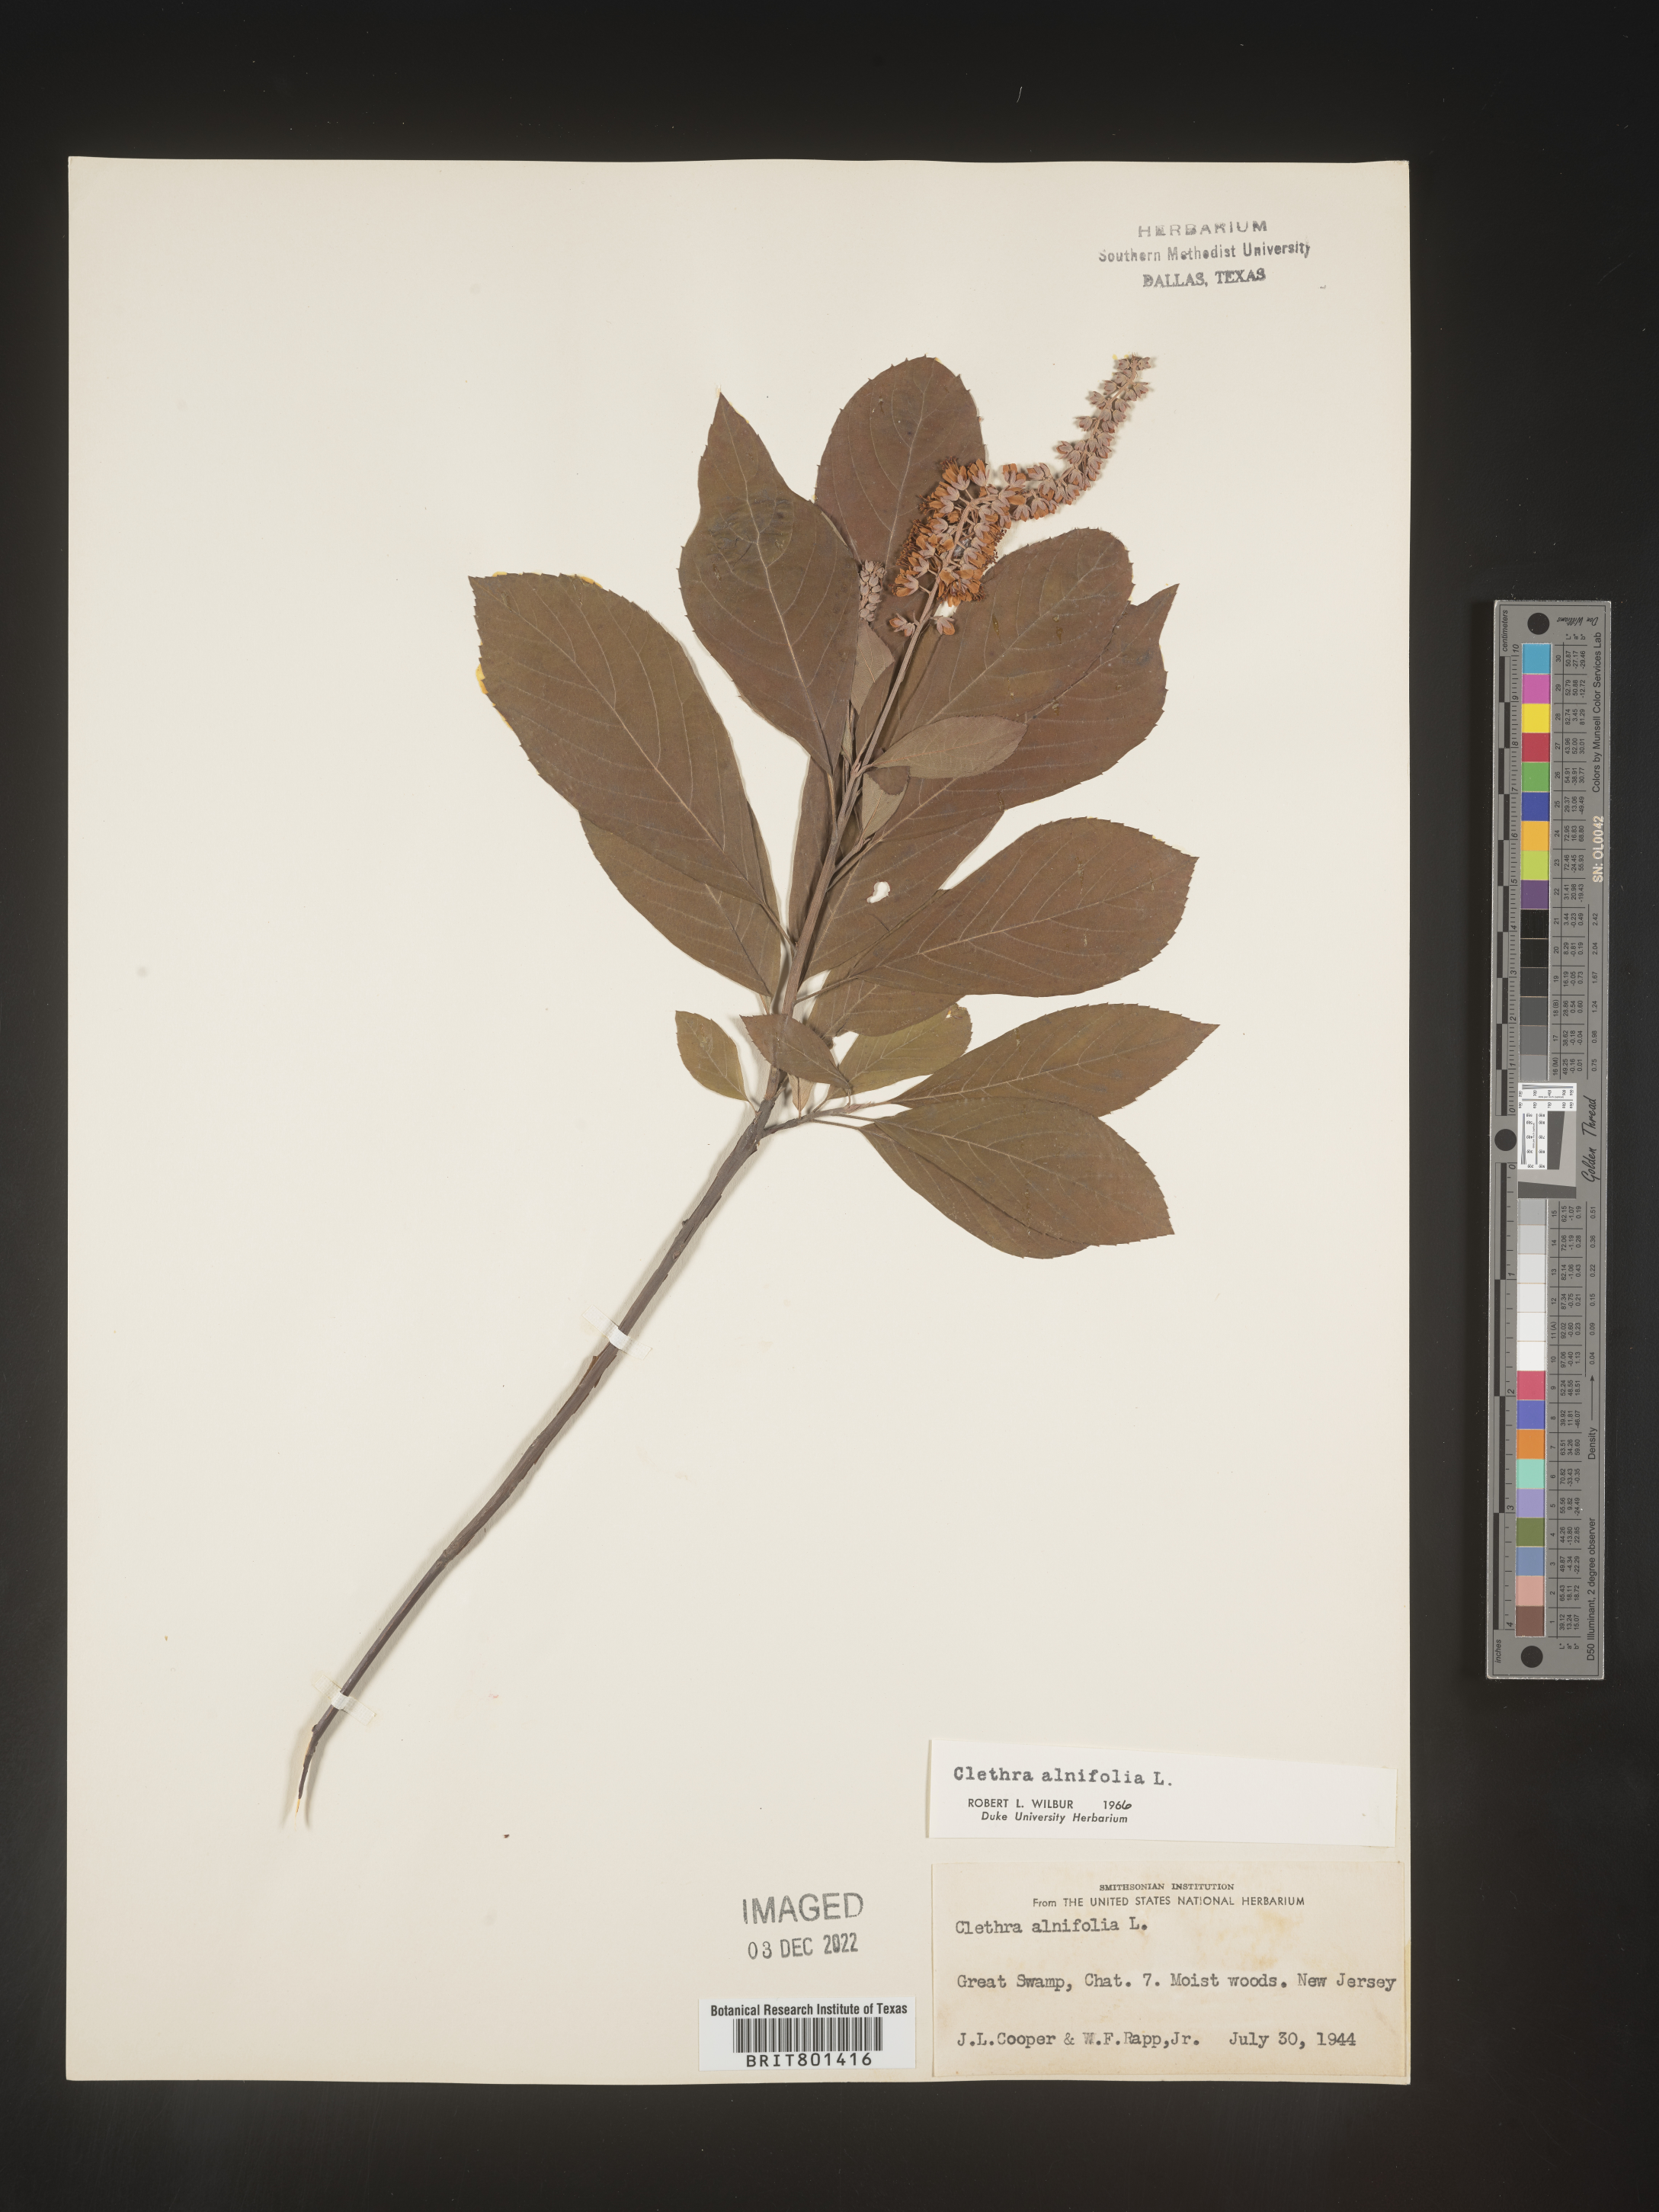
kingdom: Plantae
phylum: Tracheophyta
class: Magnoliopsida
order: Ericales
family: Clethraceae
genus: Clethra
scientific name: Clethra alnifolia
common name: Sweet pepperbush
